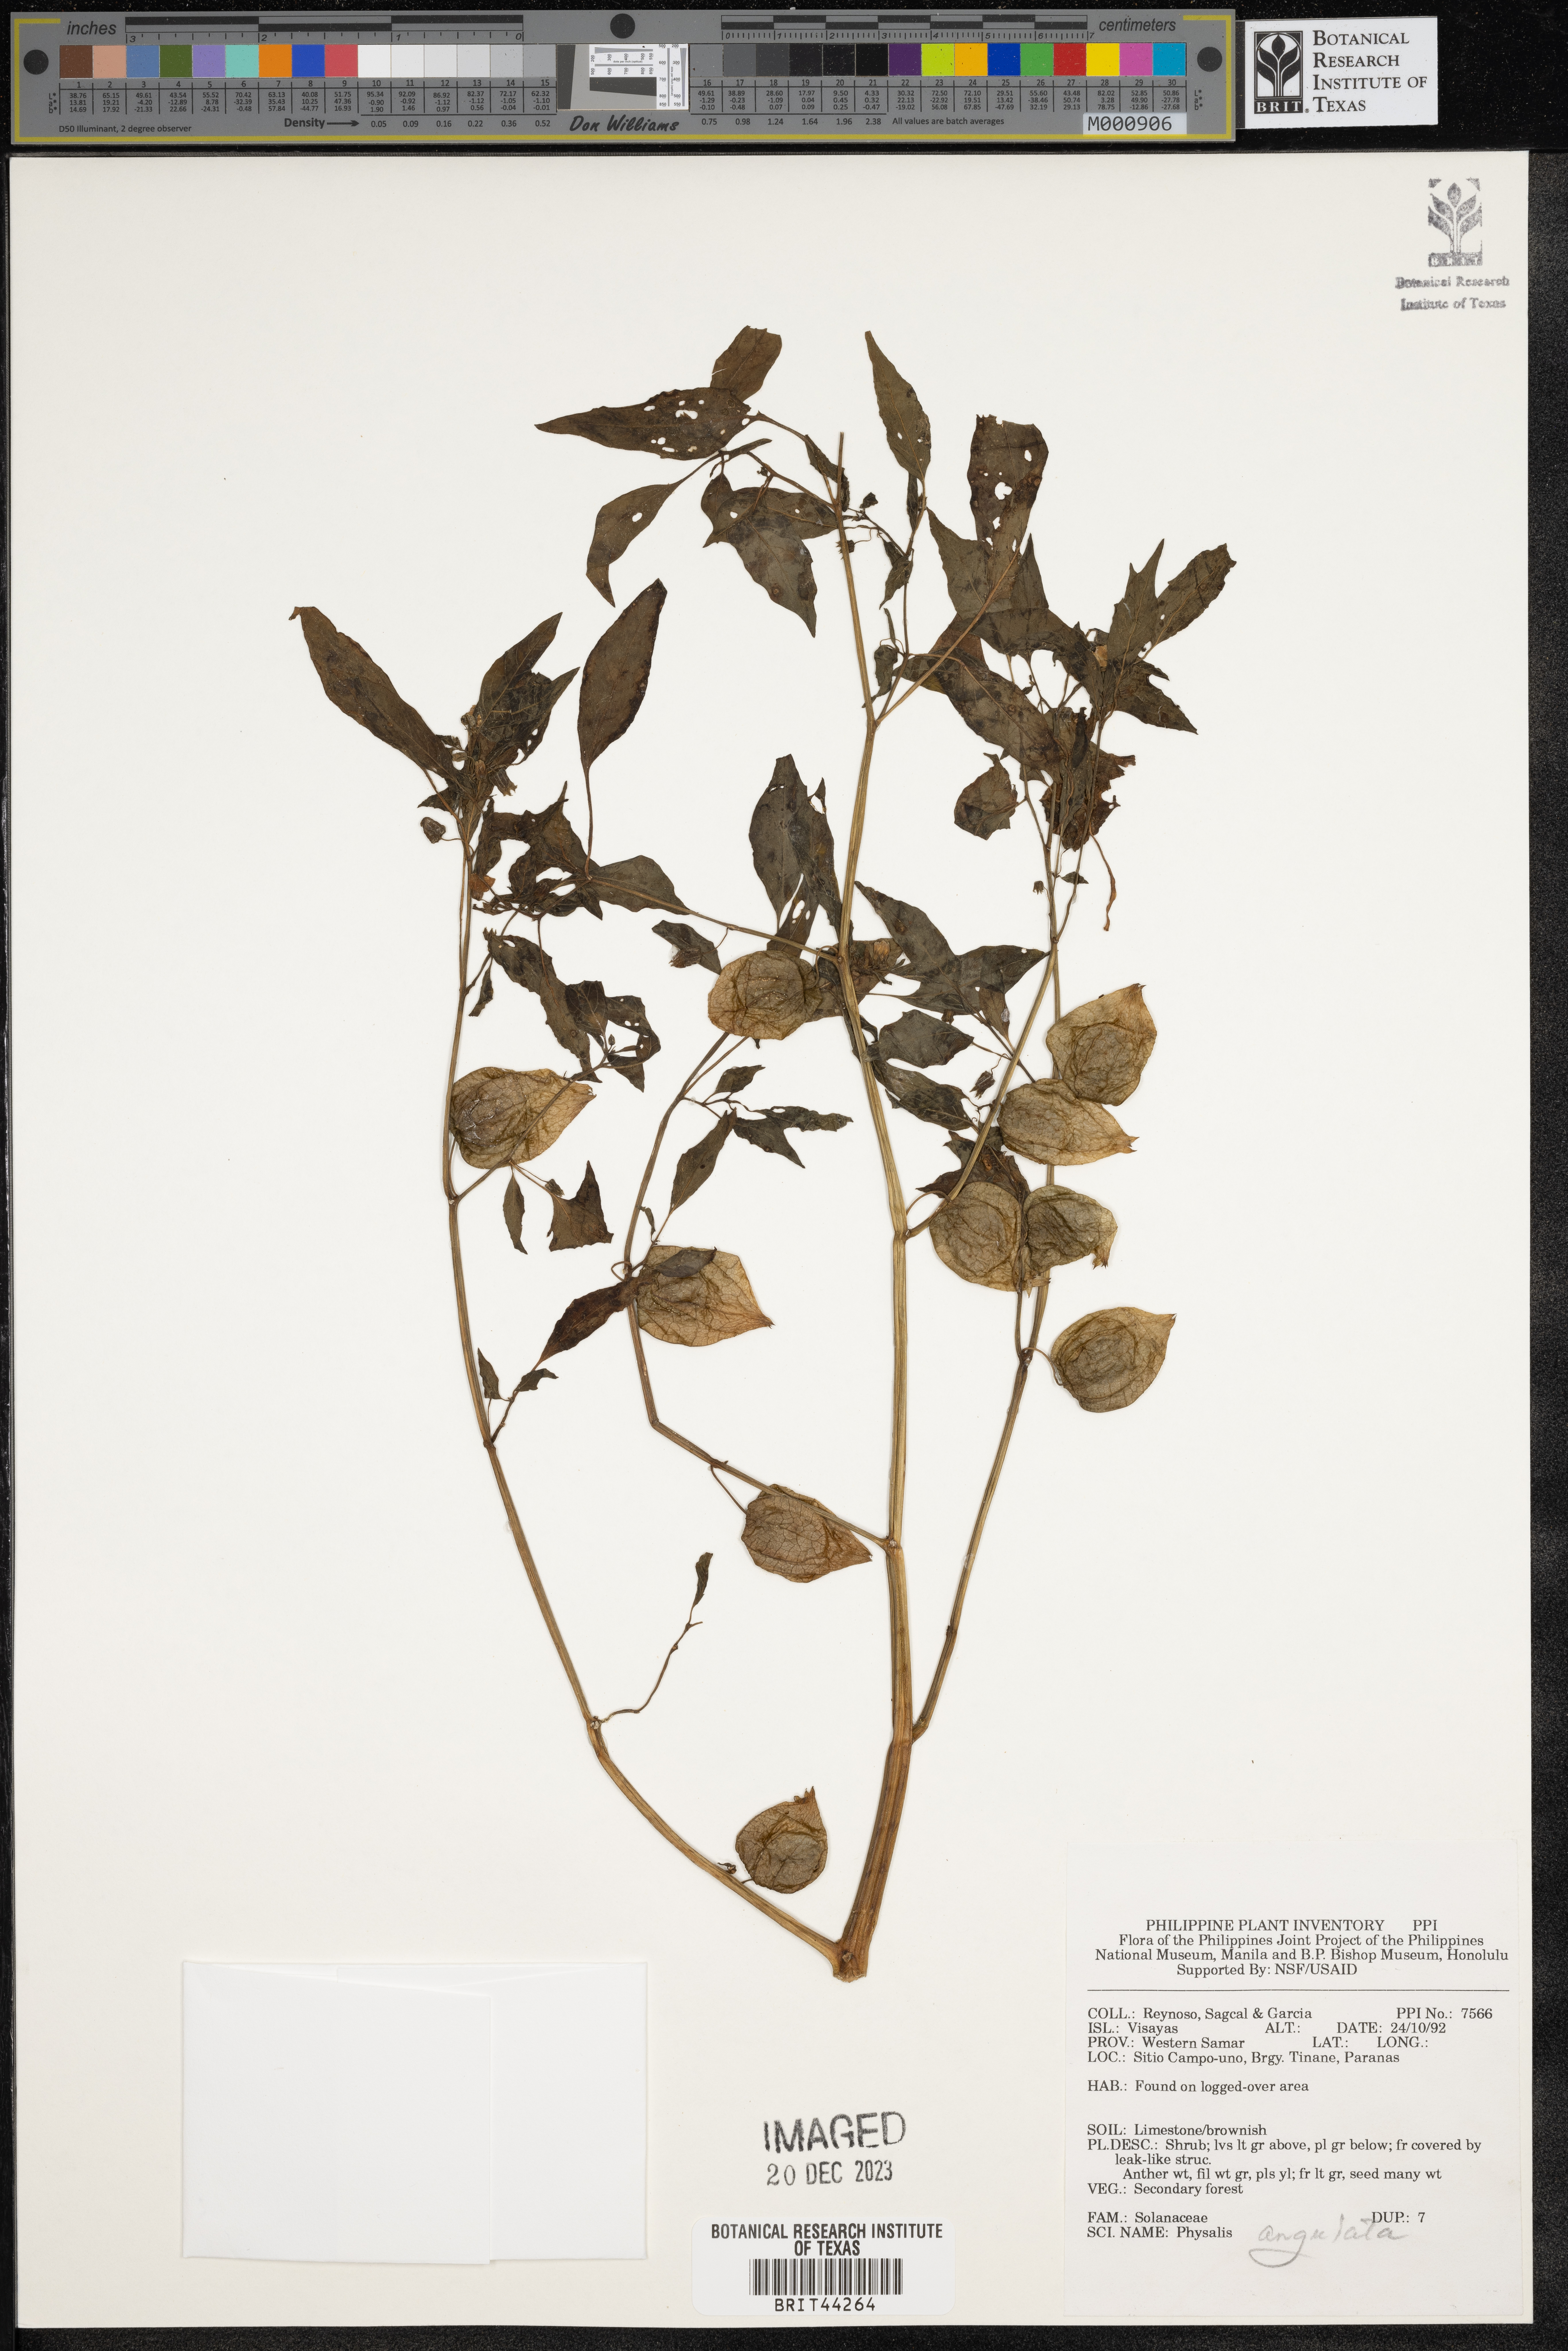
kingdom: Plantae
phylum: Tracheophyta
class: Magnoliopsida
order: Solanales
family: Solanaceae
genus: Physalis
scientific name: Physalis angulata
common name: Angular winter-cherry
